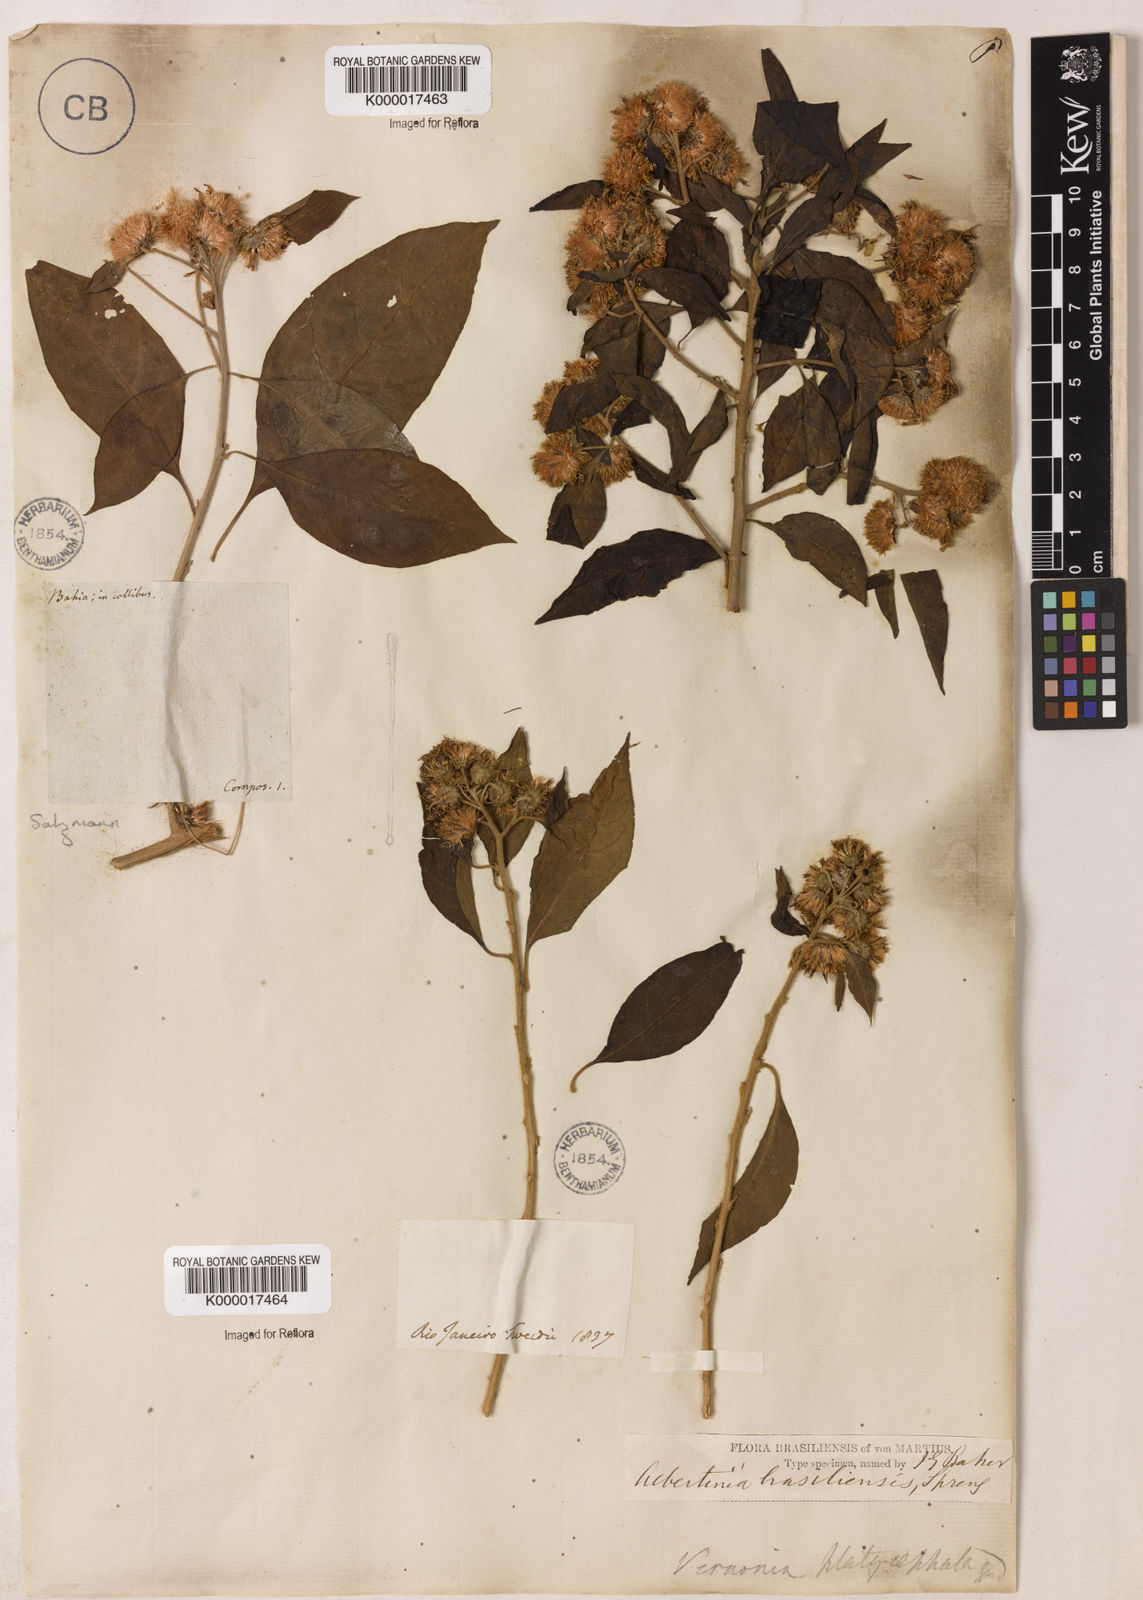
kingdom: Plantae
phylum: Tracheophyta
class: Magnoliopsida
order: Asterales
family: Asteraceae
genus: Albertinia
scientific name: Albertinia brasiliensis
